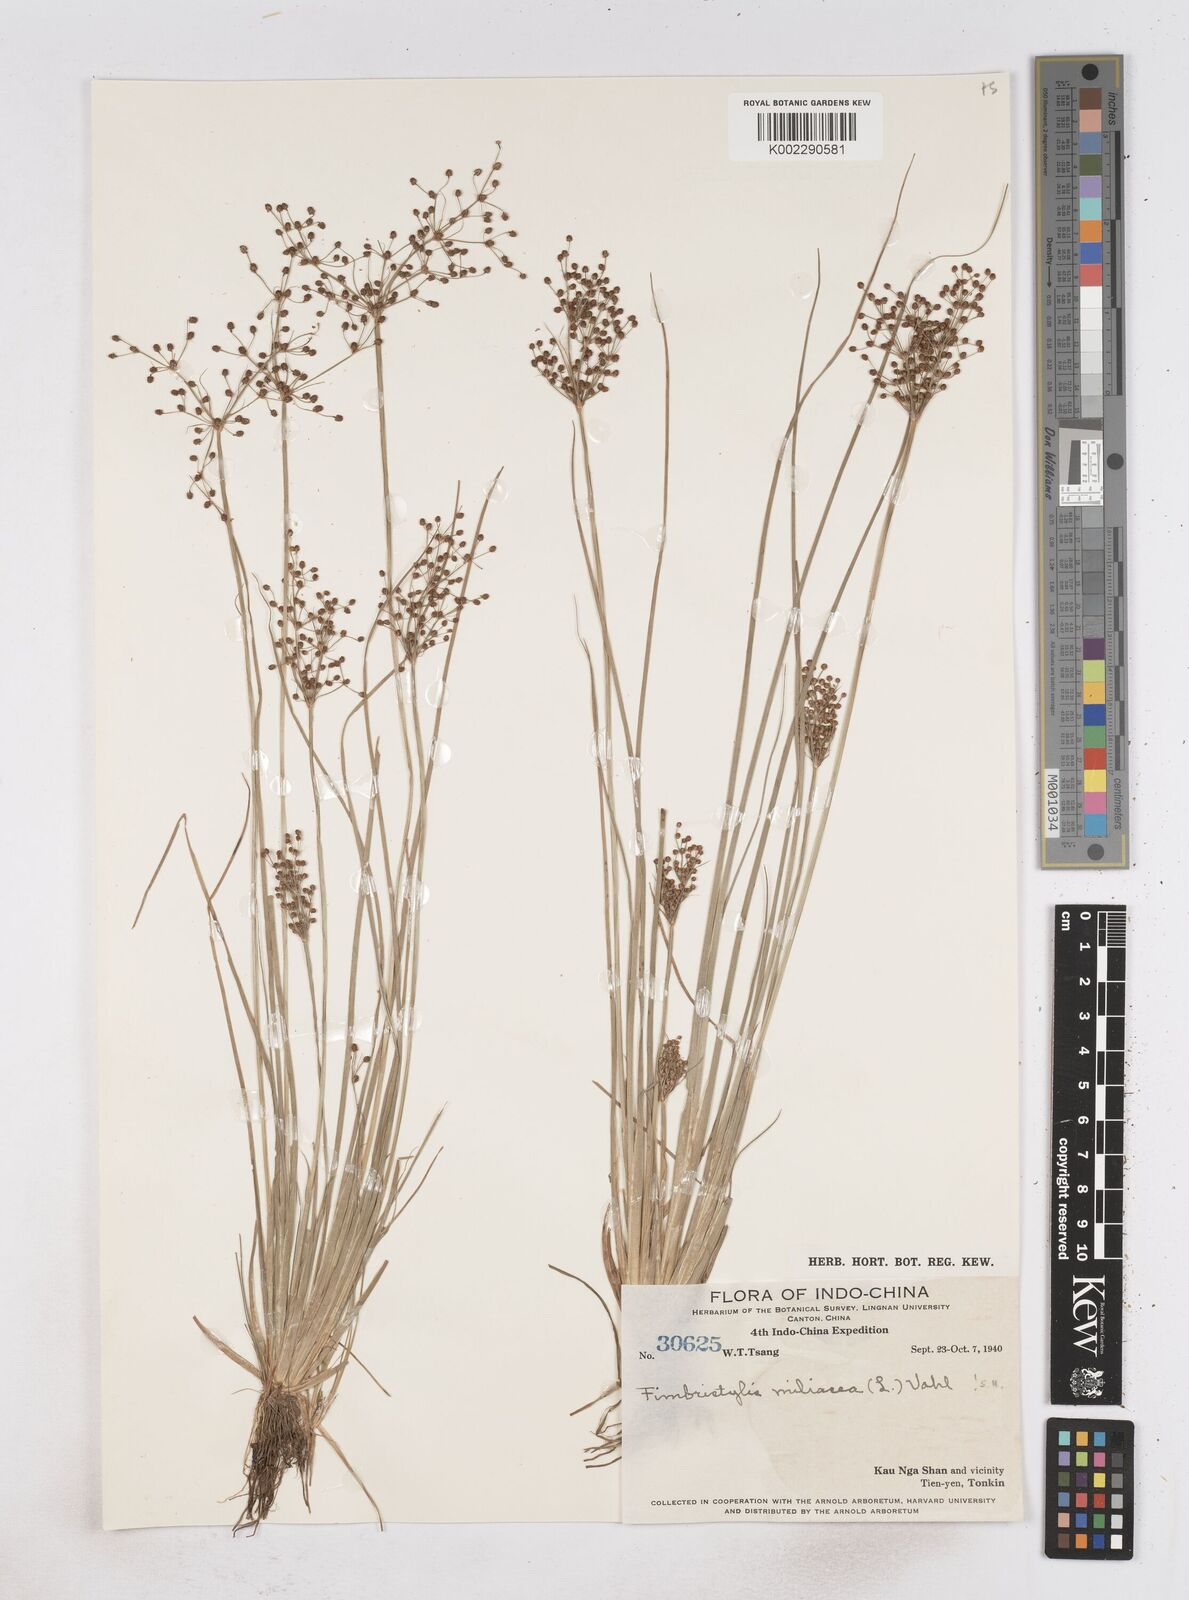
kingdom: Plantae
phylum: Tracheophyta
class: Liliopsida
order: Poales
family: Cyperaceae
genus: Fimbristylis
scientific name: Fimbristylis littoralis
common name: Fimbry
